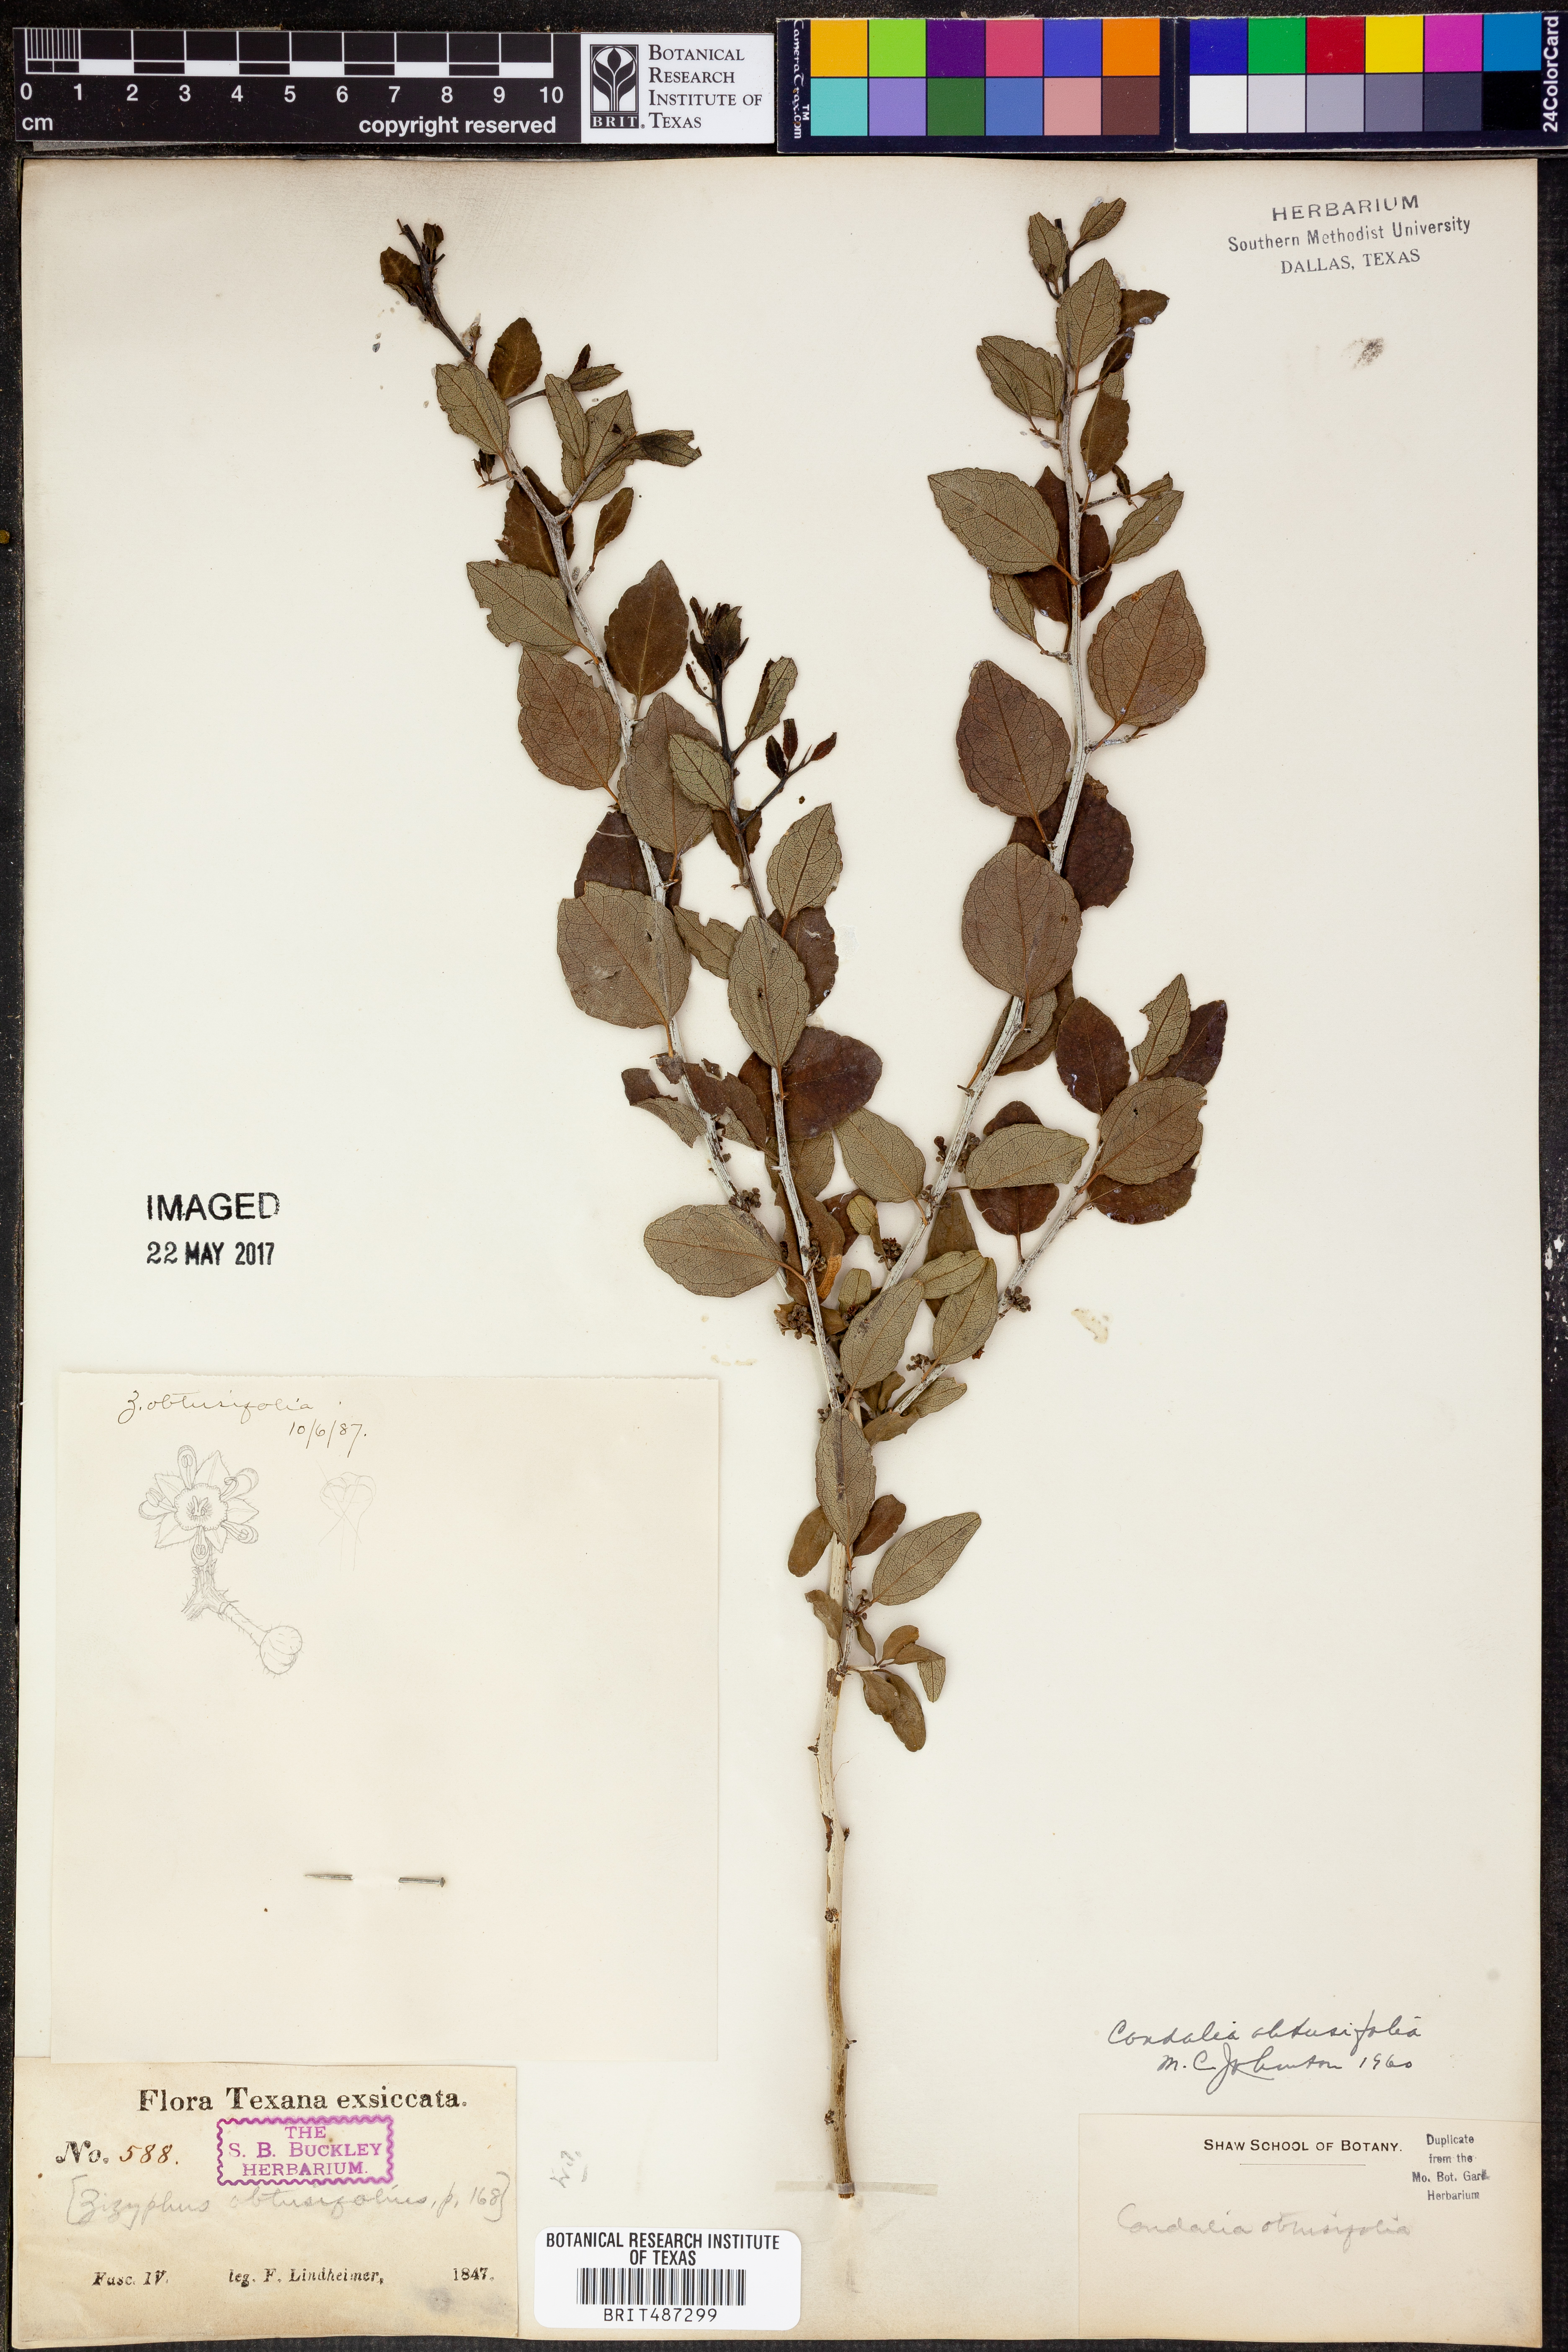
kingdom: Plantae
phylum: Tracheophyta
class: Magnoliopsida
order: Rosales
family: Rhamnaceae
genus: Sarcomphalus
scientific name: Sarcomphalus obtusifolius
